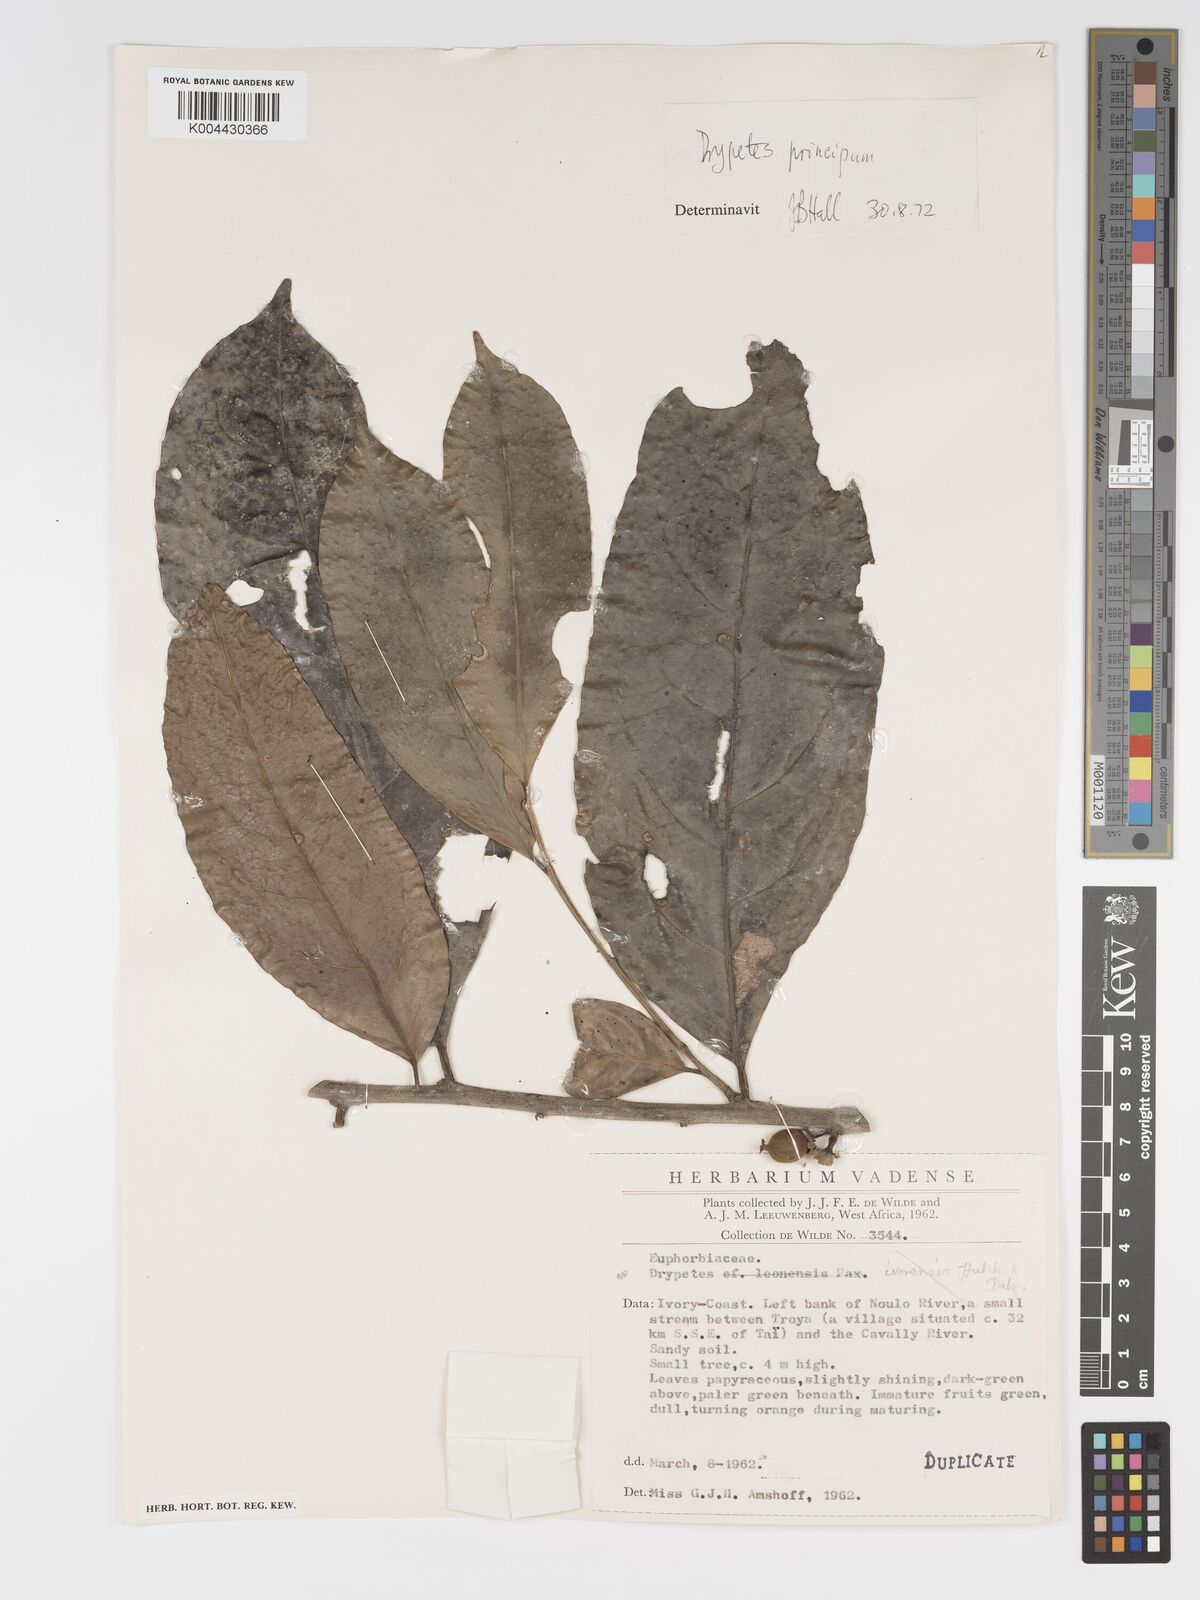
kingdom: Plantae
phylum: Tracheophyta
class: Magnoliopsida
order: Malpighiales
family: Putranjivaceae
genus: Drypetes
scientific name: Drypetes principum
